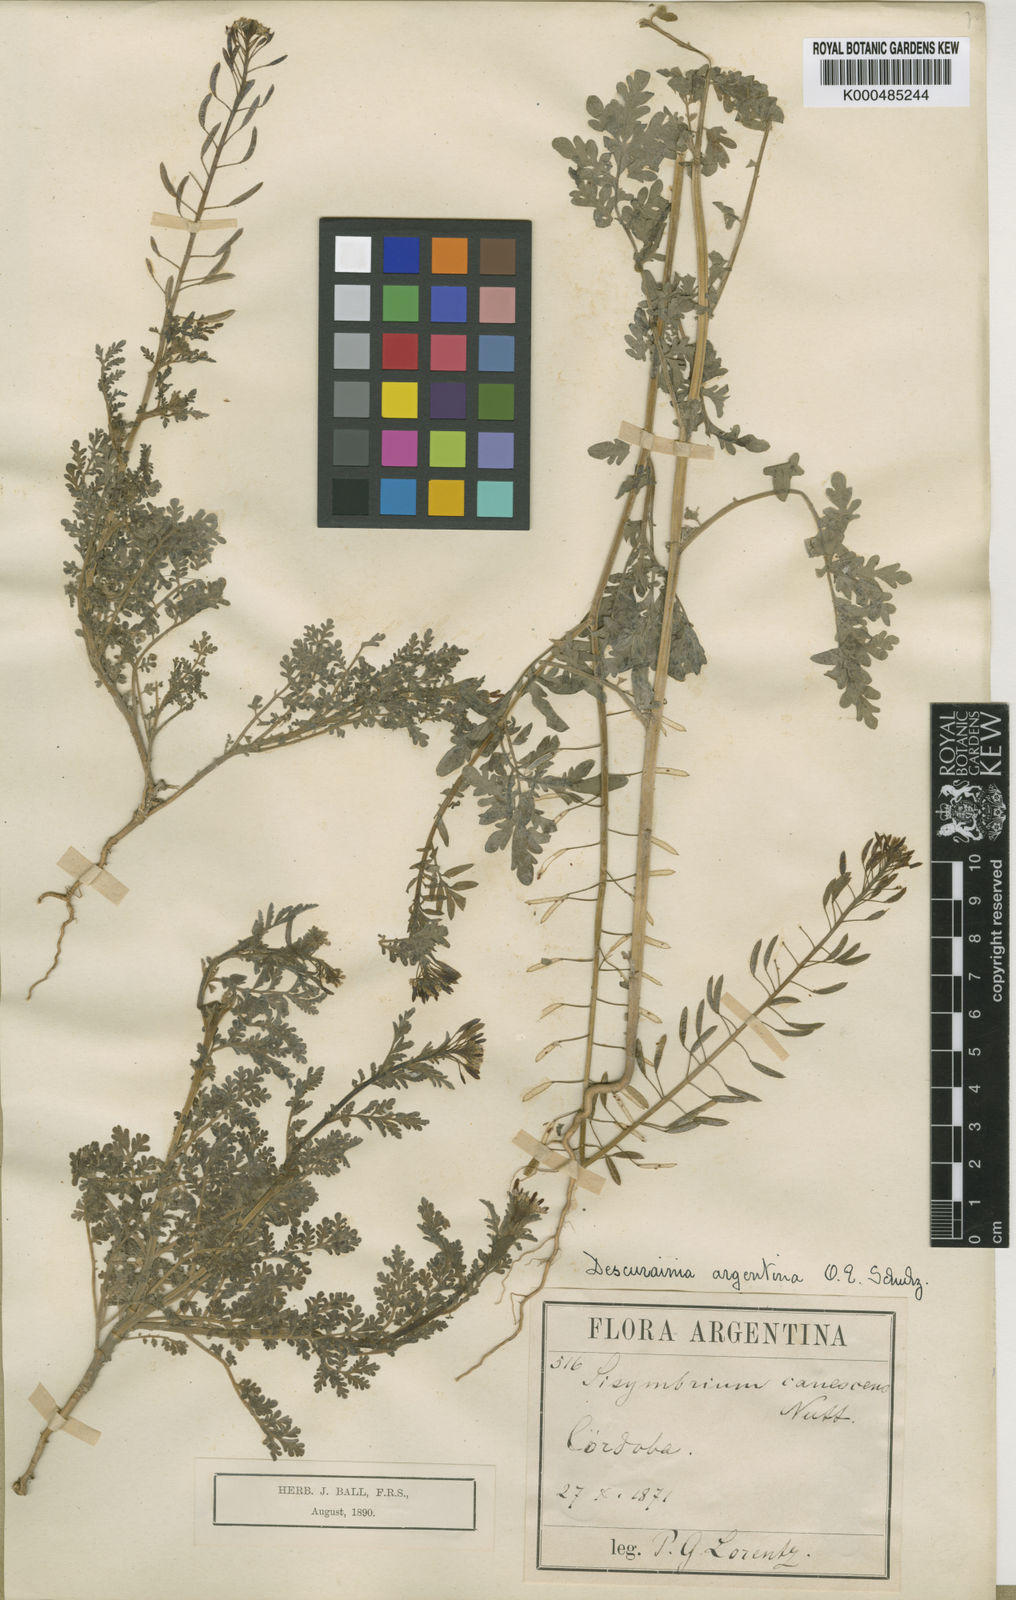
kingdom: Plantae
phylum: Tracheophyta
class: Magnoliopsida
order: Brassicales
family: Brassicaceae
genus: Descurainia
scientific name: Descurainia erodiifolia
